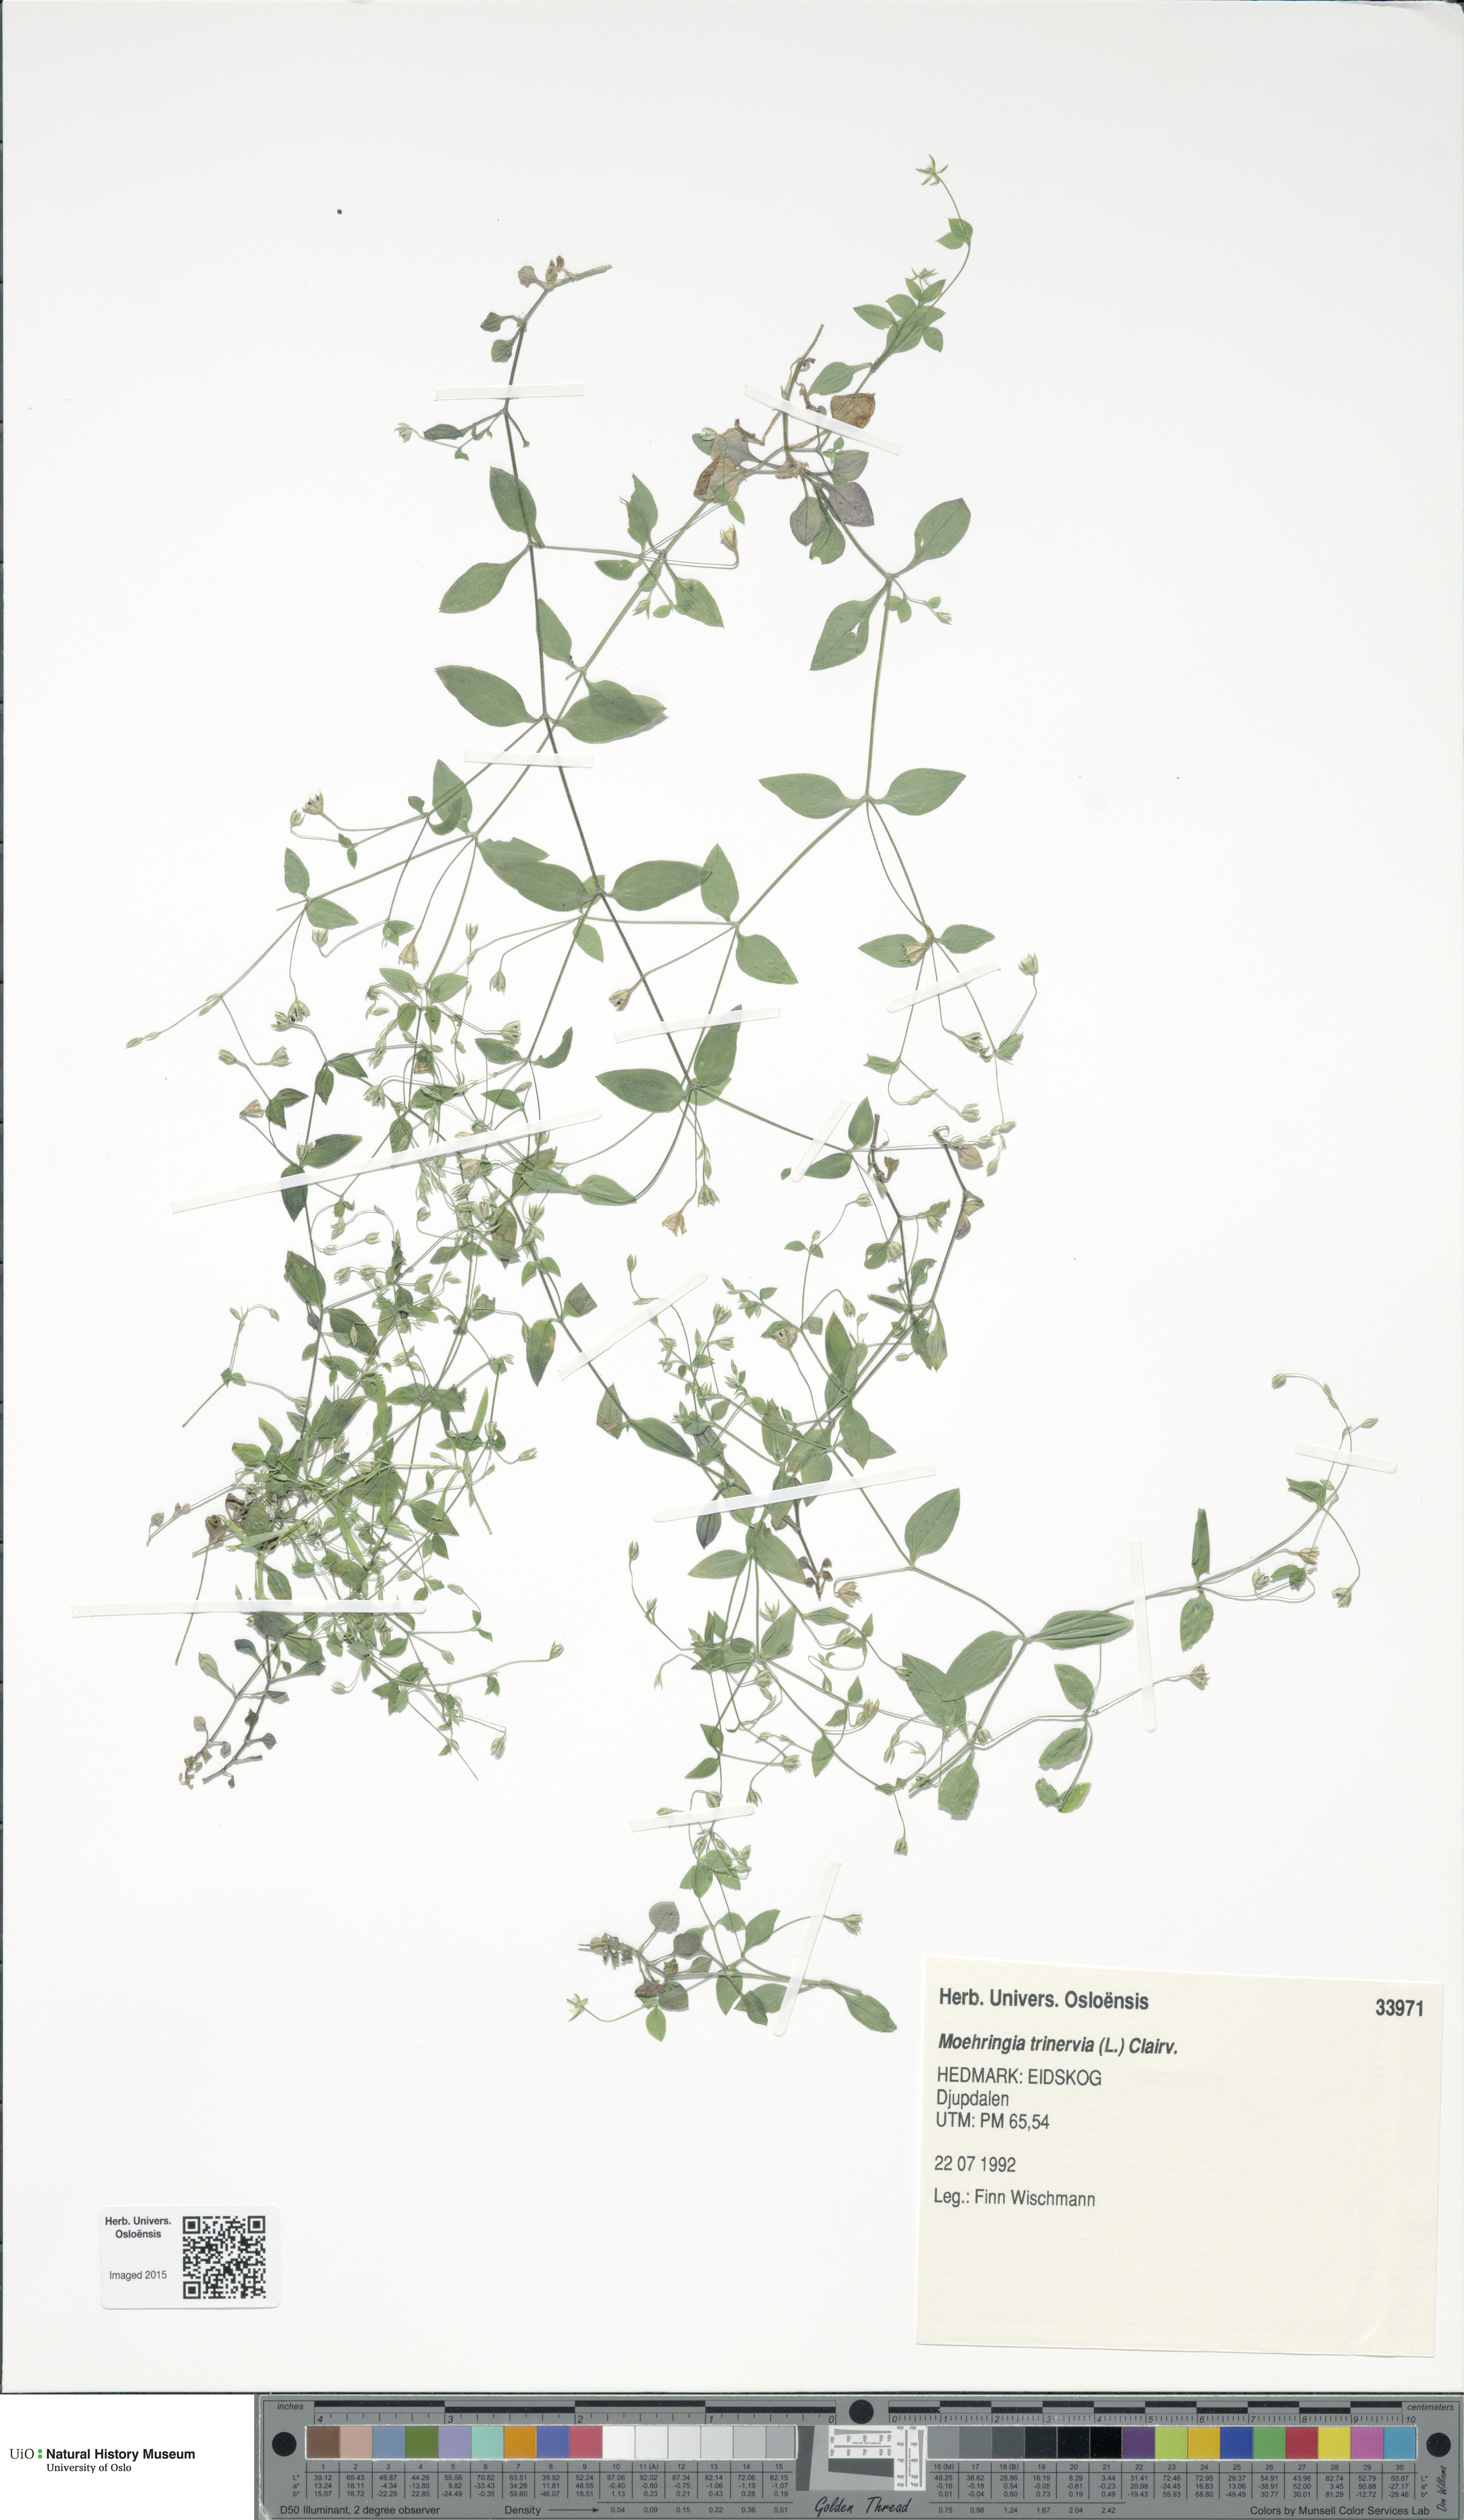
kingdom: Plantae
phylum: Tracheophyta
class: Magnoliopsida
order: Caryophyllales
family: Caryophyllaceae
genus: Moehringia
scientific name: Moehringia trinervia
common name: Three-nerved sandwort
